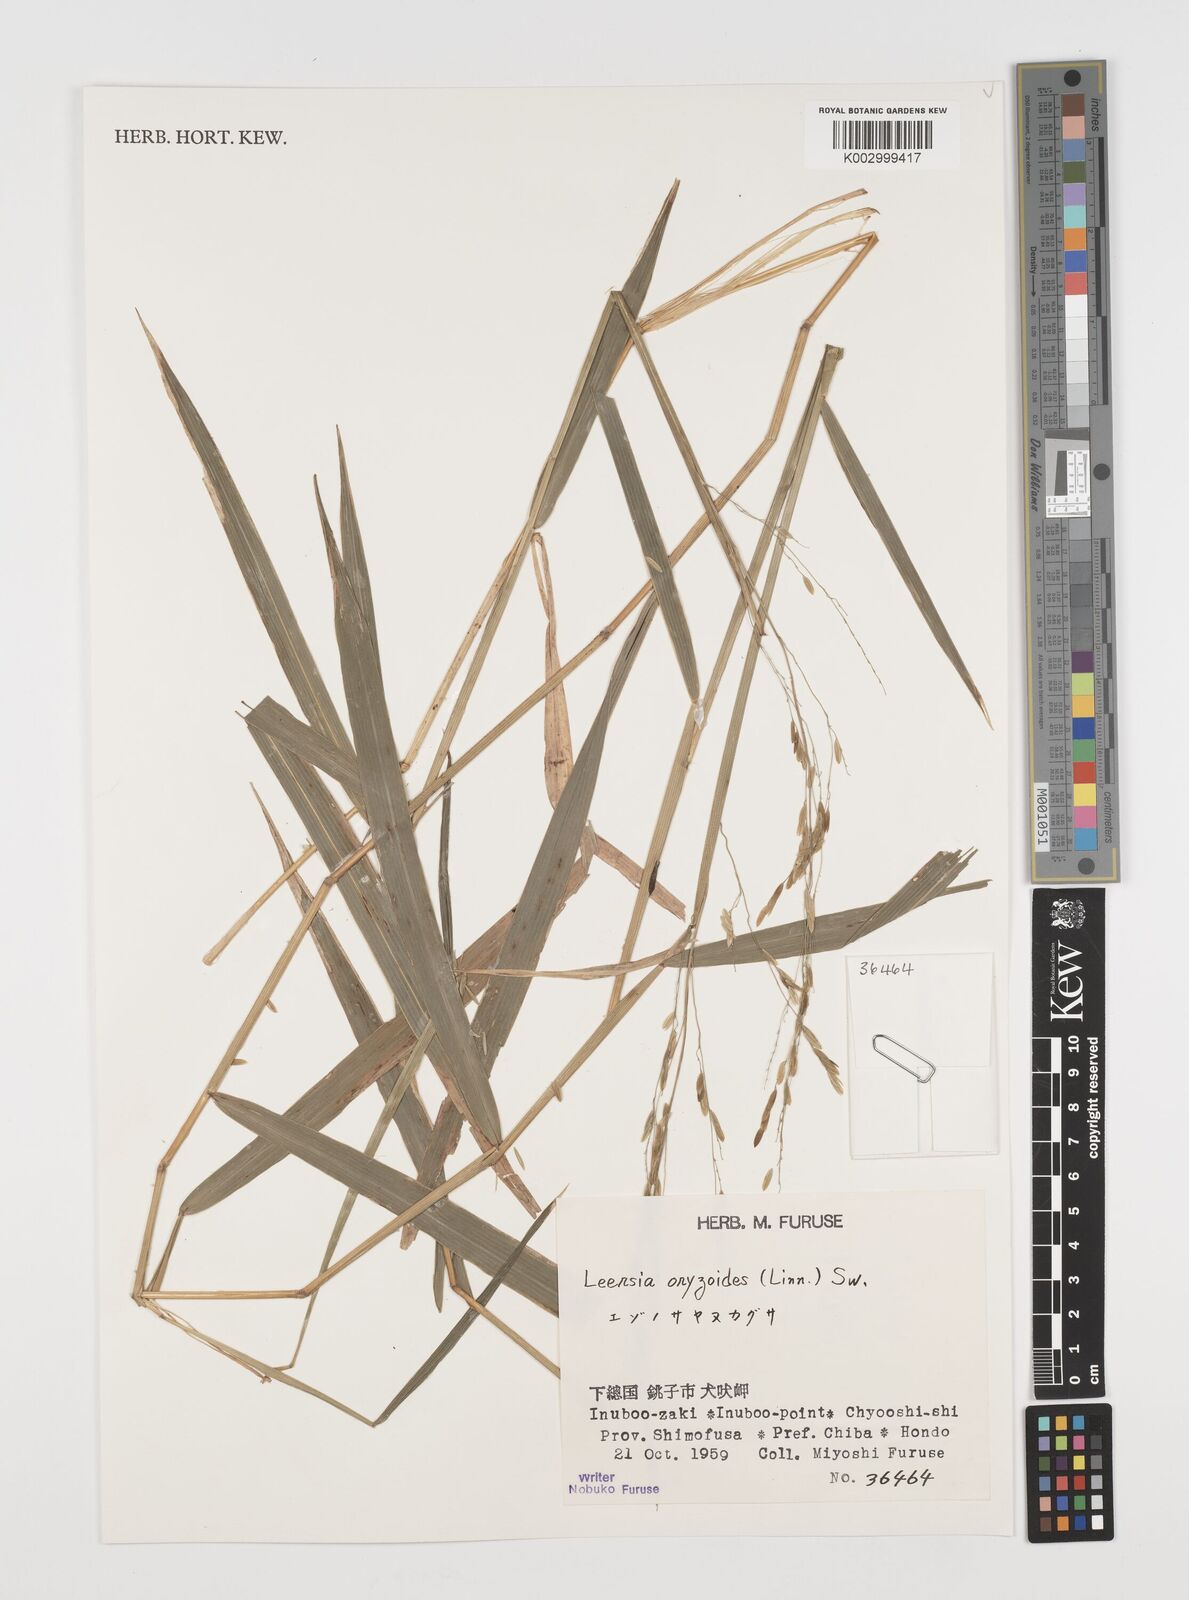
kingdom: Plantae
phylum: Tracheophyta
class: Liliopsida
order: Poales
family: Poaceae
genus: Leersia
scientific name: Leersia oryzoides
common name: Cut-grass
